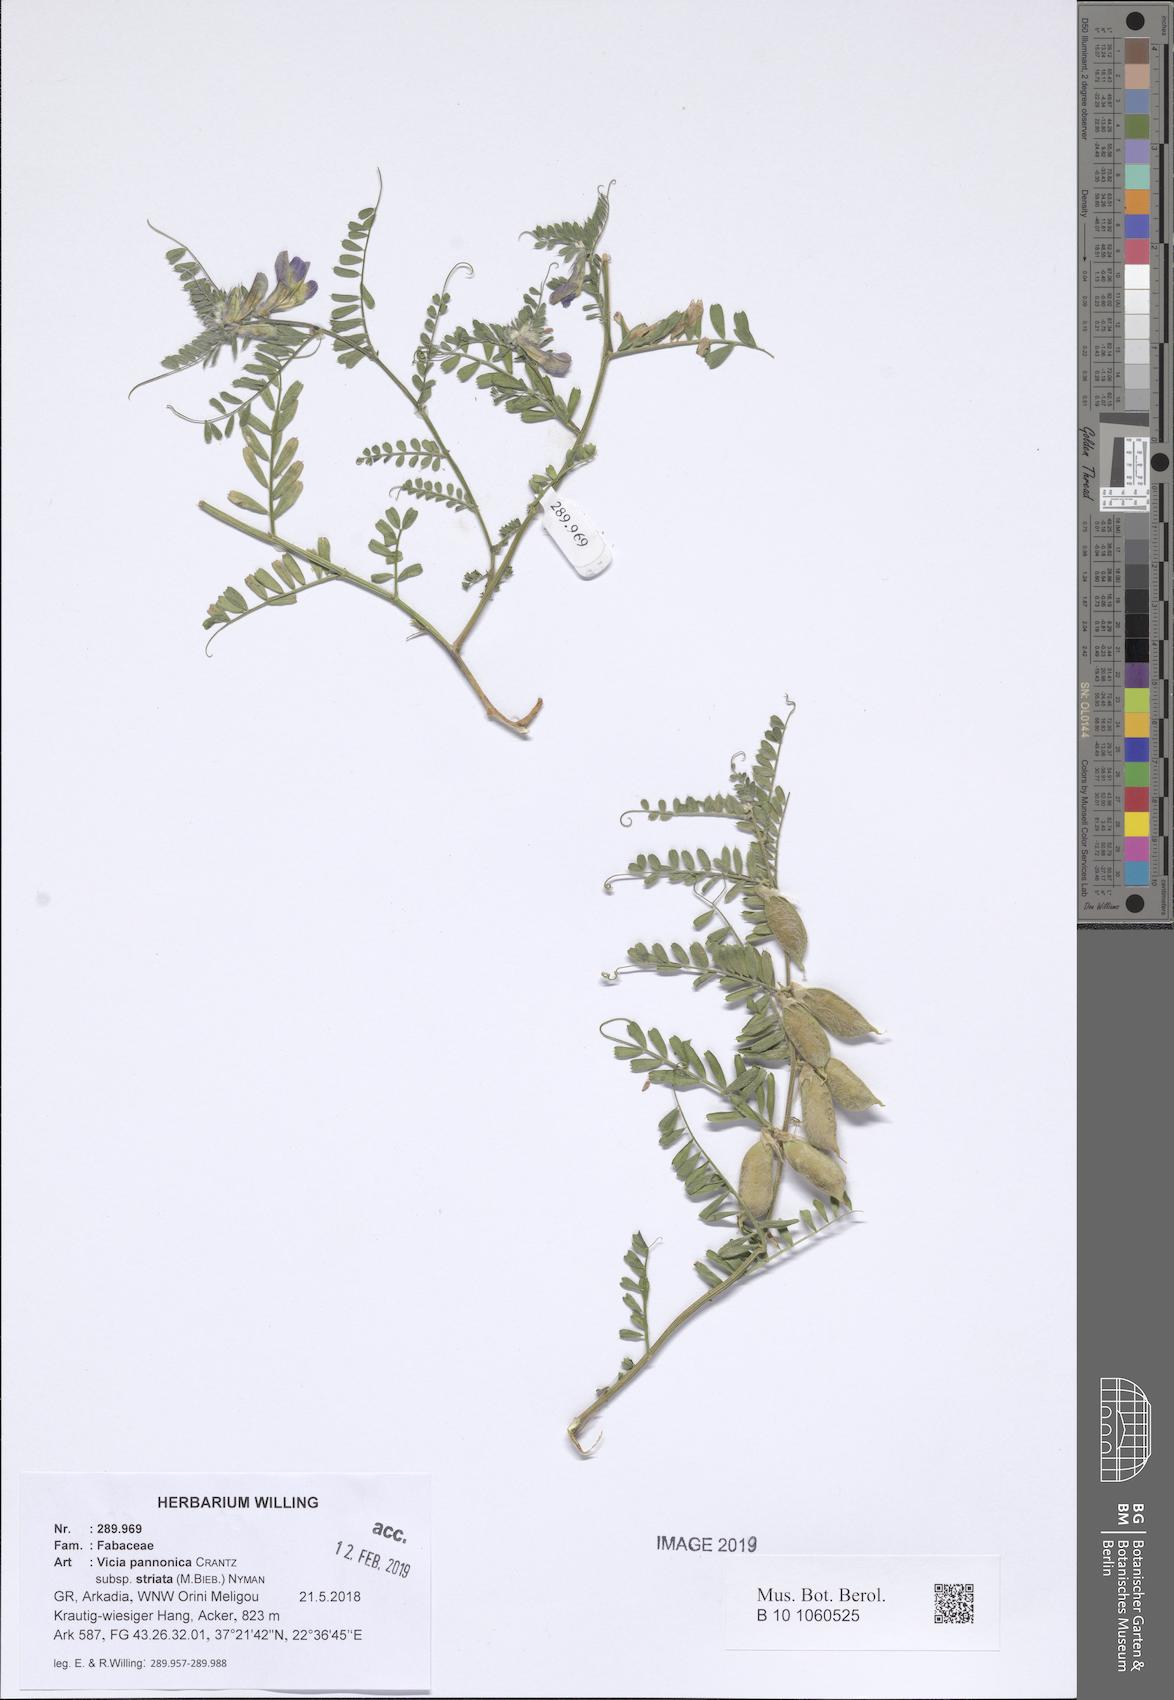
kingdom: Plantae
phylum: Tracheophyta
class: Magnoliopsida
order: Fabales
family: Fabaceae
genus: Vicia
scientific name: Vicia pannonica
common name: Hungarian vetch
